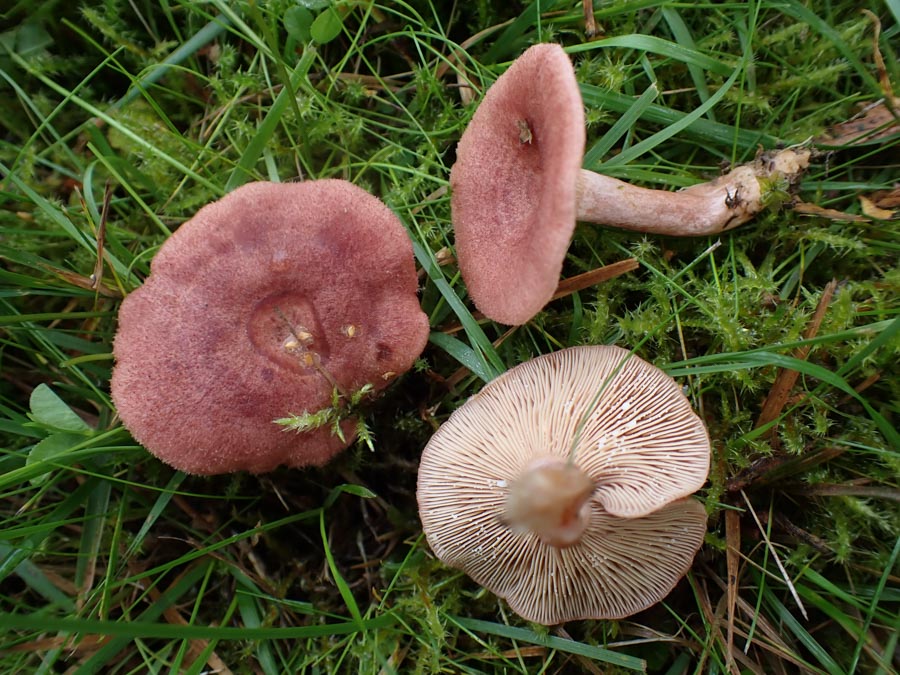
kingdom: Fungi
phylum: Basidiomycota
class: Agaricomycetes
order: Russulales
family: Russulaceae
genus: Lactarius
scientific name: Lactarius spinosulus
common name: småskællet mælkehat
